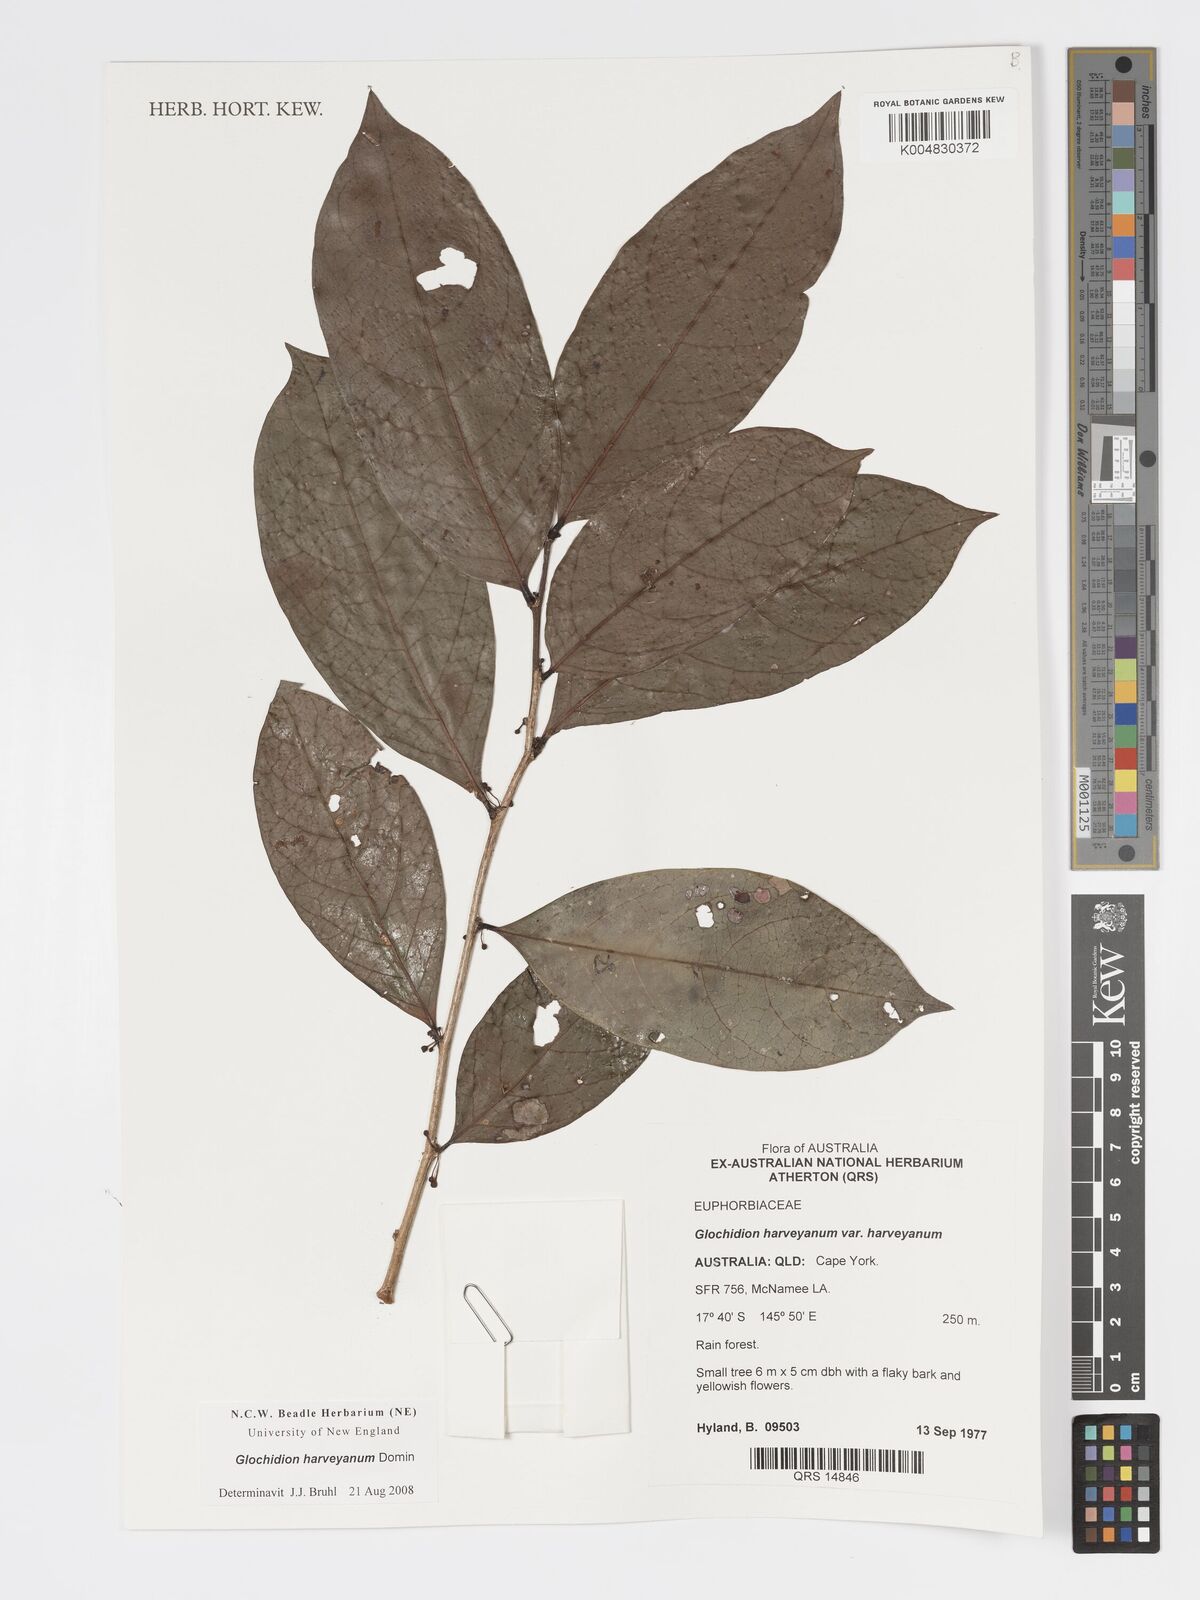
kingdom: Plantae
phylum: Tracheophyta
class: Magnoliopsida
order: Malpighiales
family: Phyllanthaceae
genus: Glochidion
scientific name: Glochidion harveyanum
